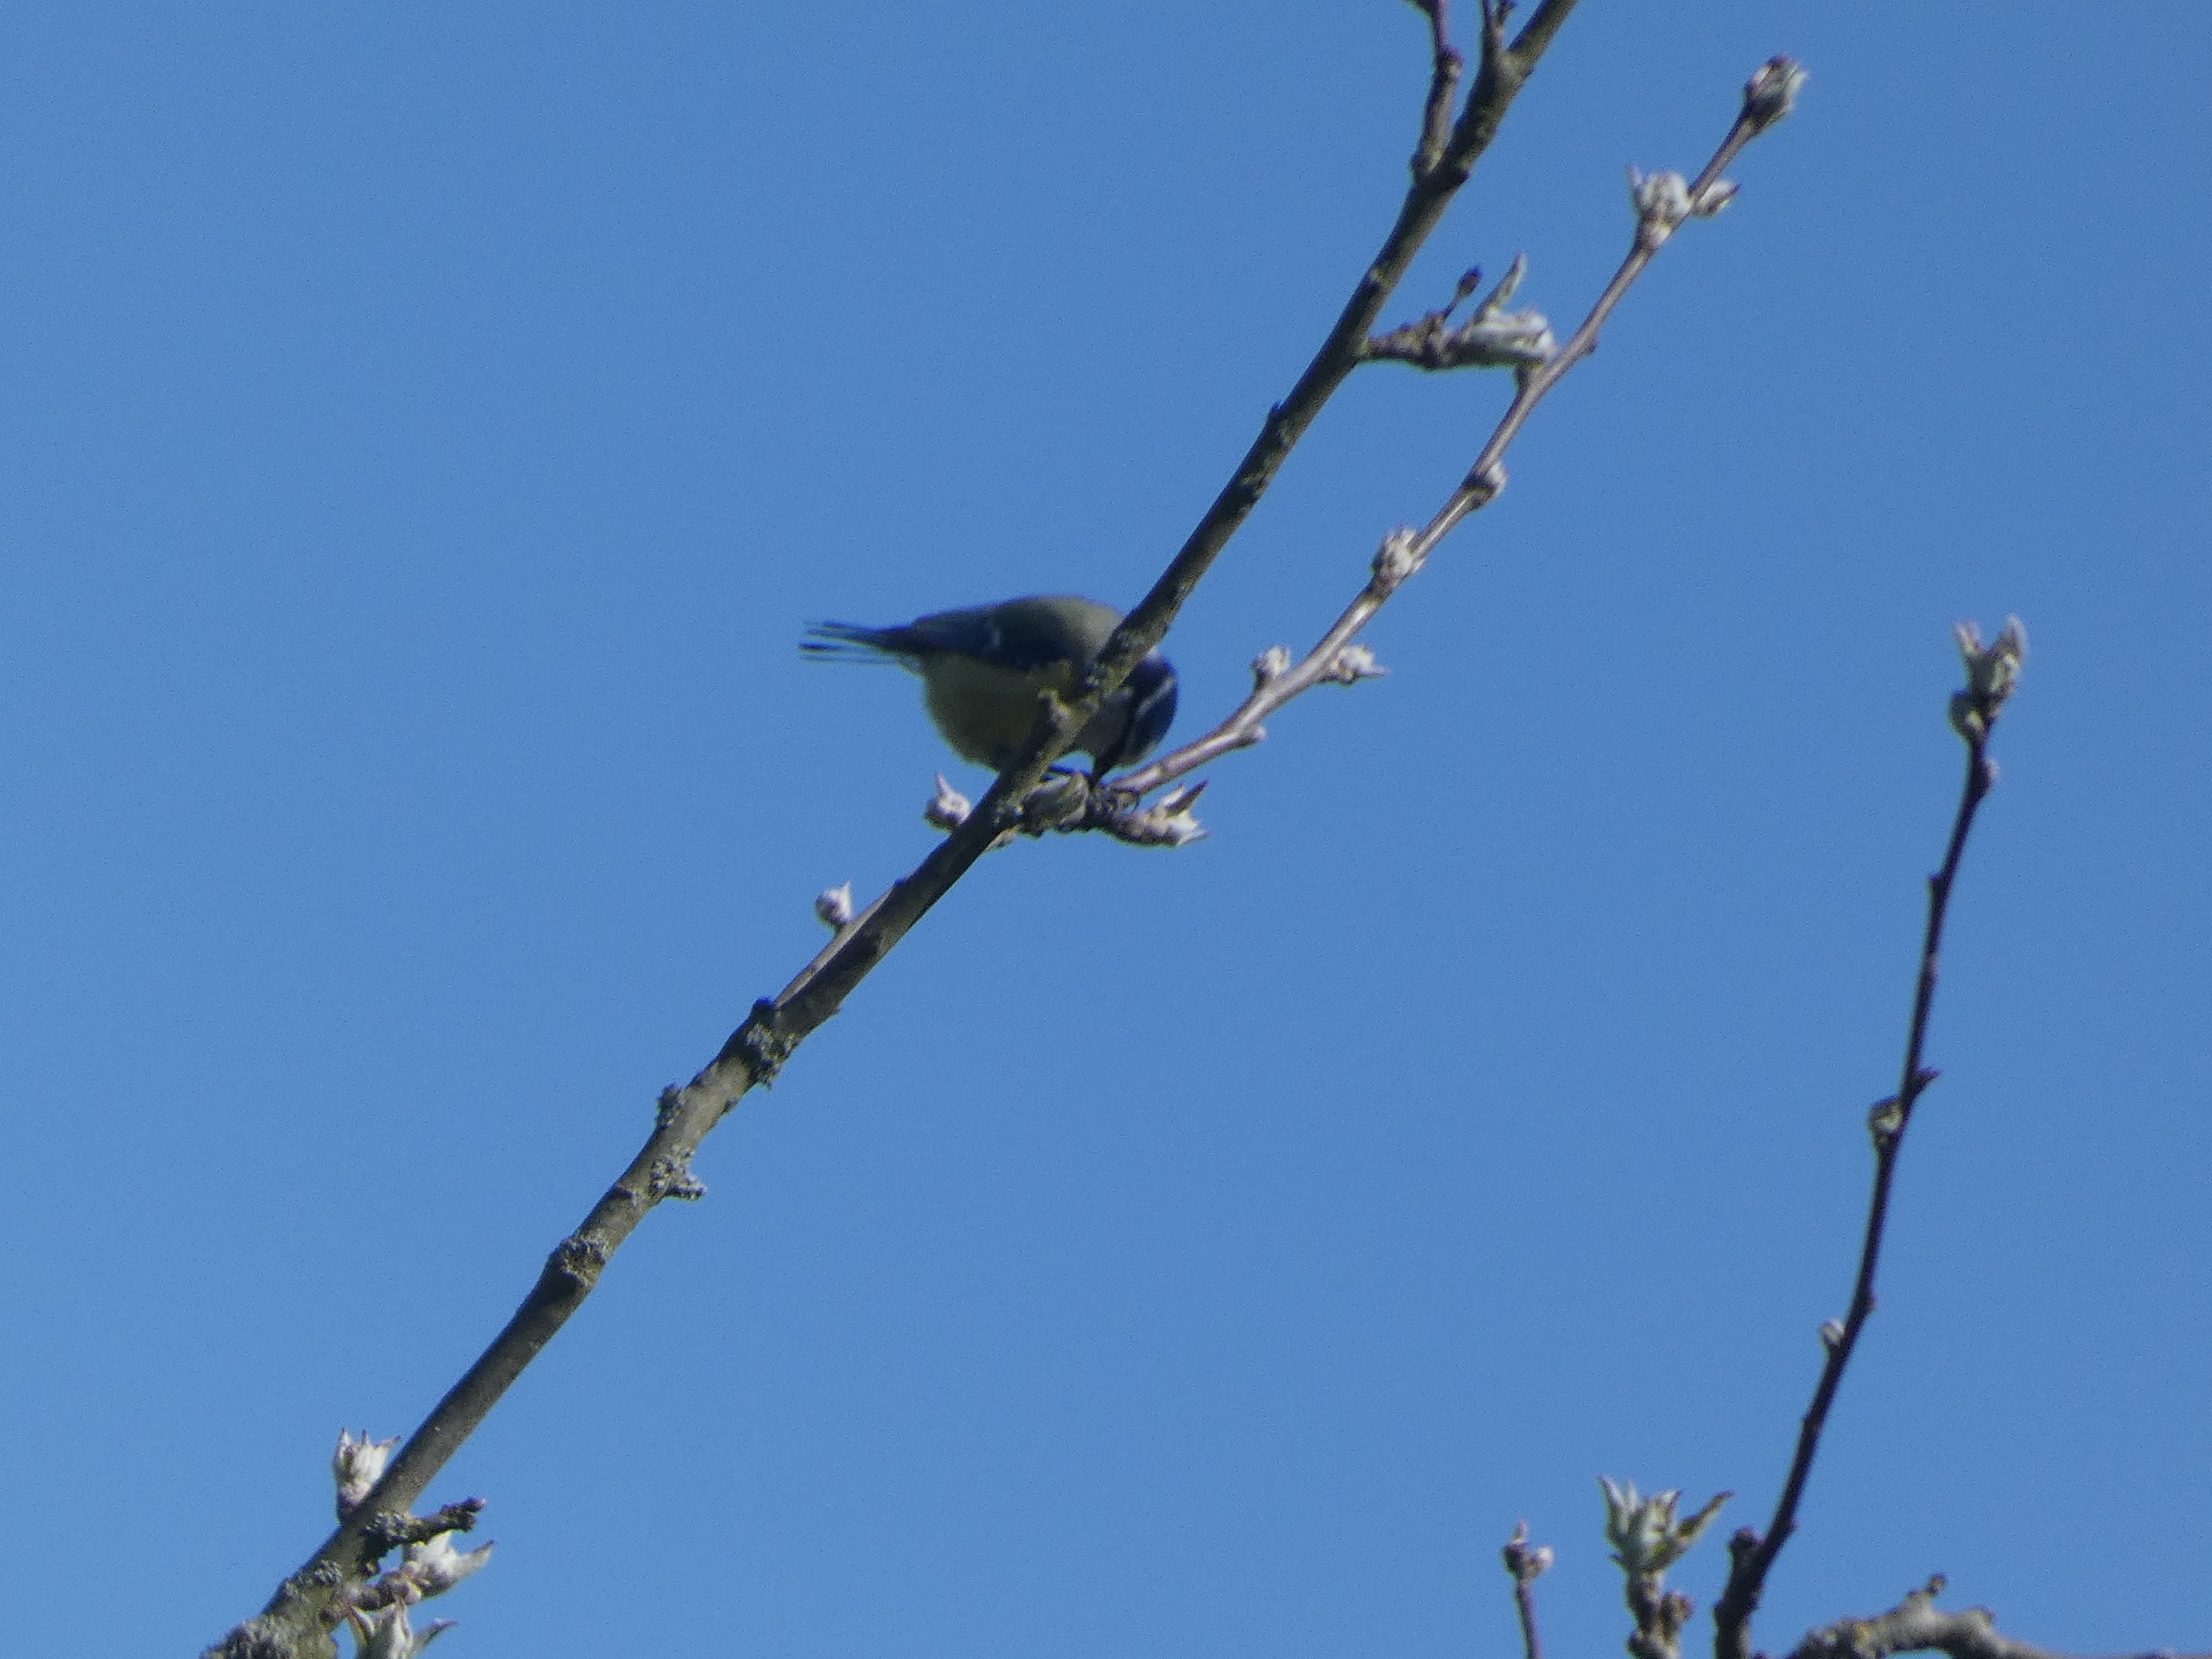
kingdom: Animalia
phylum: Chordata
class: Aves
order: Passeriformes
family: Paridae
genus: Cyanistes
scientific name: Cyanistes caeruleus
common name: Blåmejse
